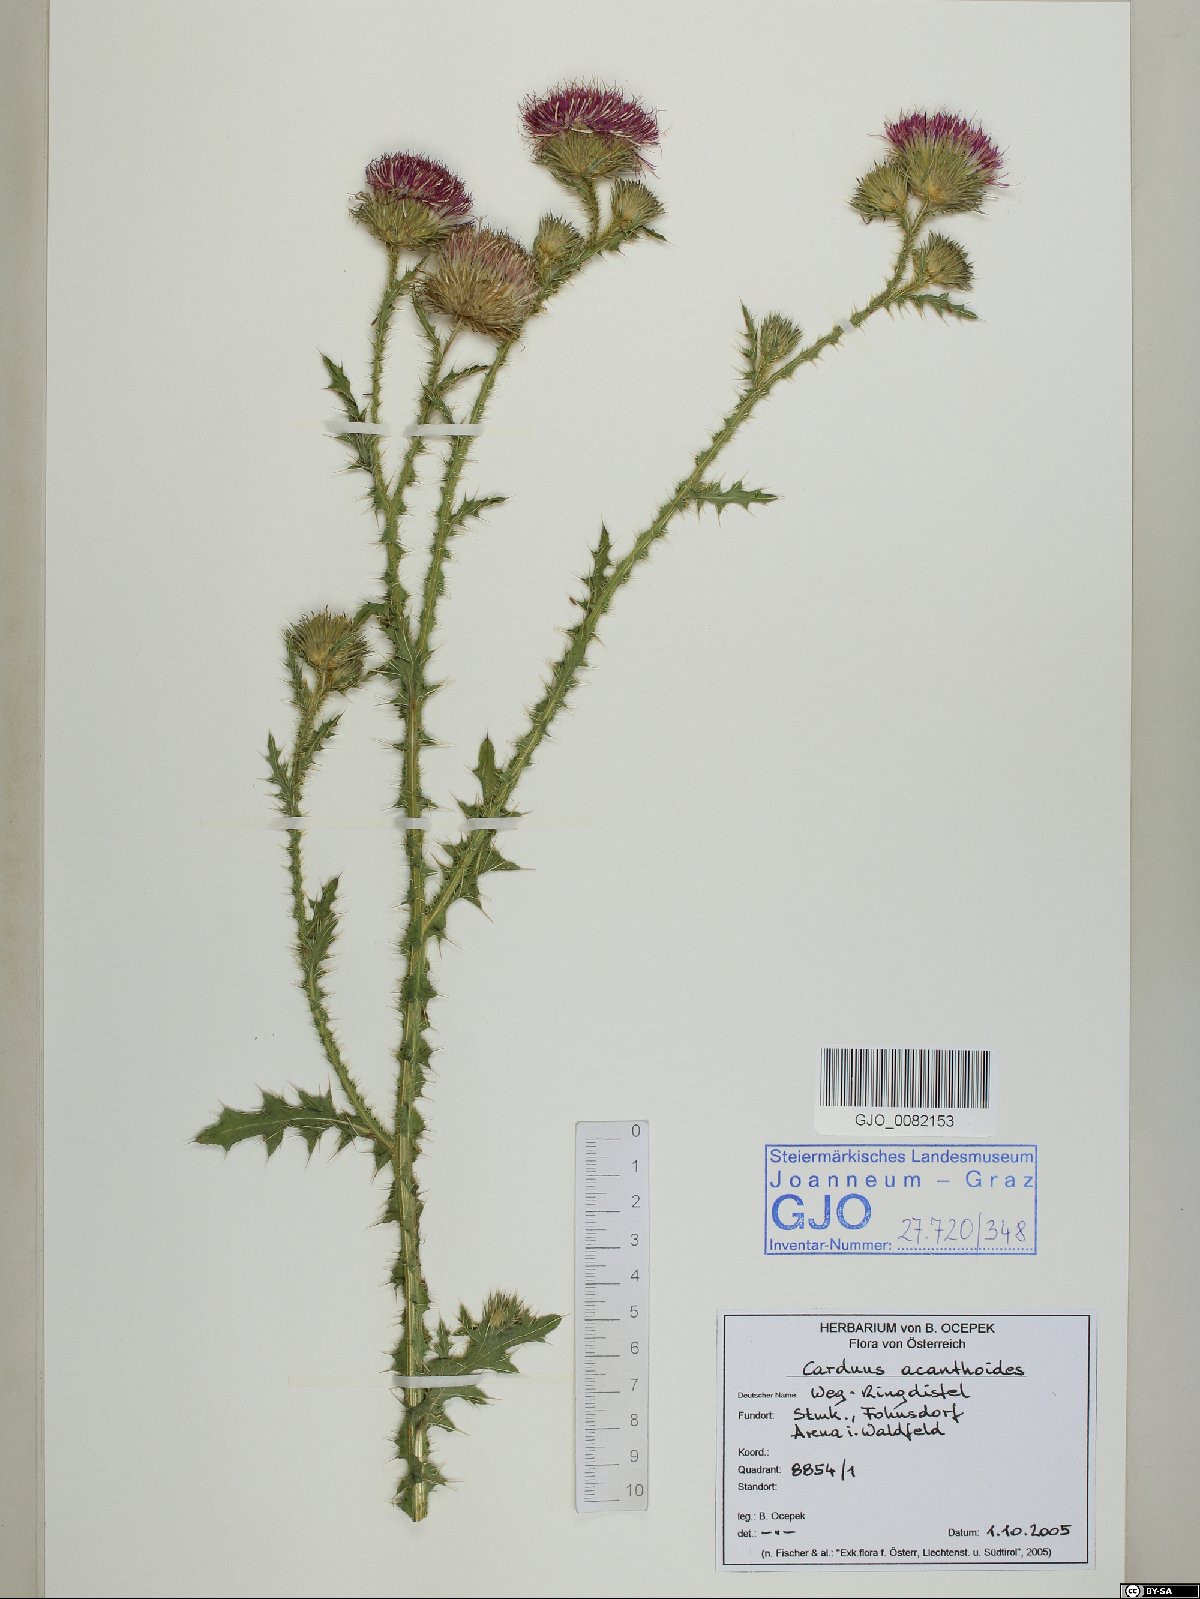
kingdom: Plantae
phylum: Tracheophyta
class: Magnoliopsida
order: Asterales
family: Asteraceae
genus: Carduus
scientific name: Carduus acanthoides
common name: Plumeless thistle
